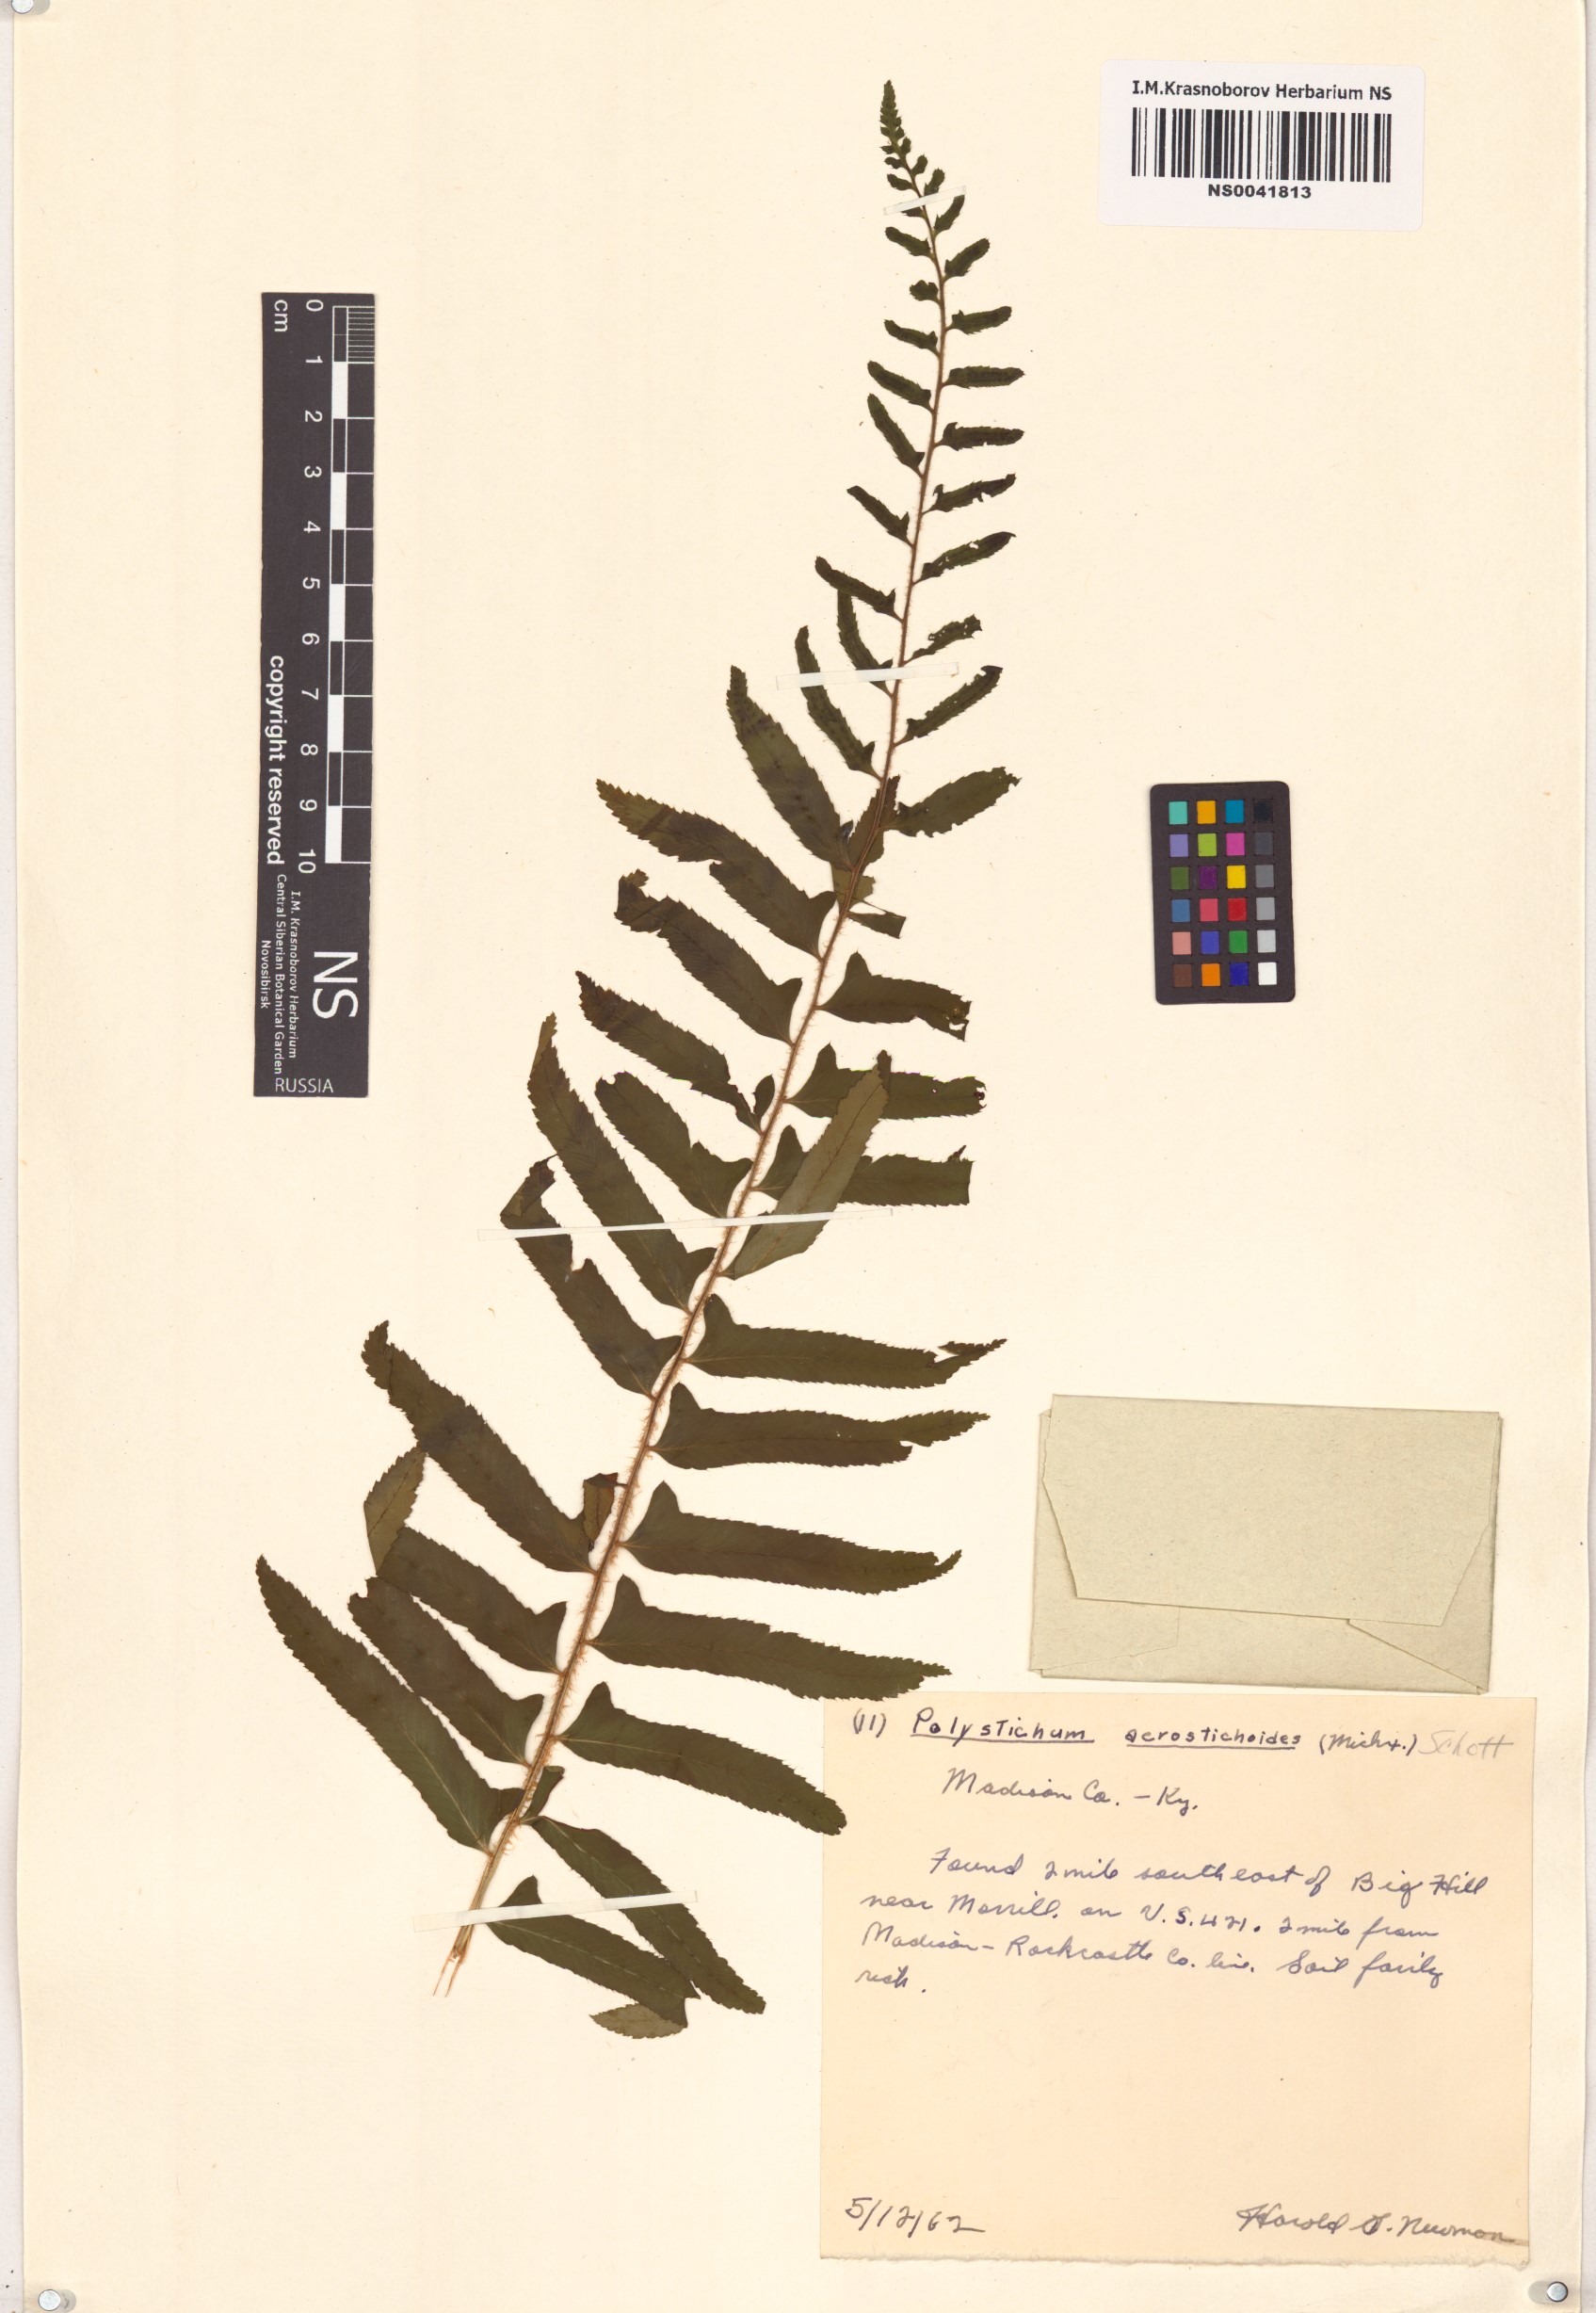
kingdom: Plantae
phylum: Tracheophyta
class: Polypodiopsida
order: Polypodiales
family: Dryopteridaceae
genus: Polystichum
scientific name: Polystichum acrostichoides
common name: Christmas fern
